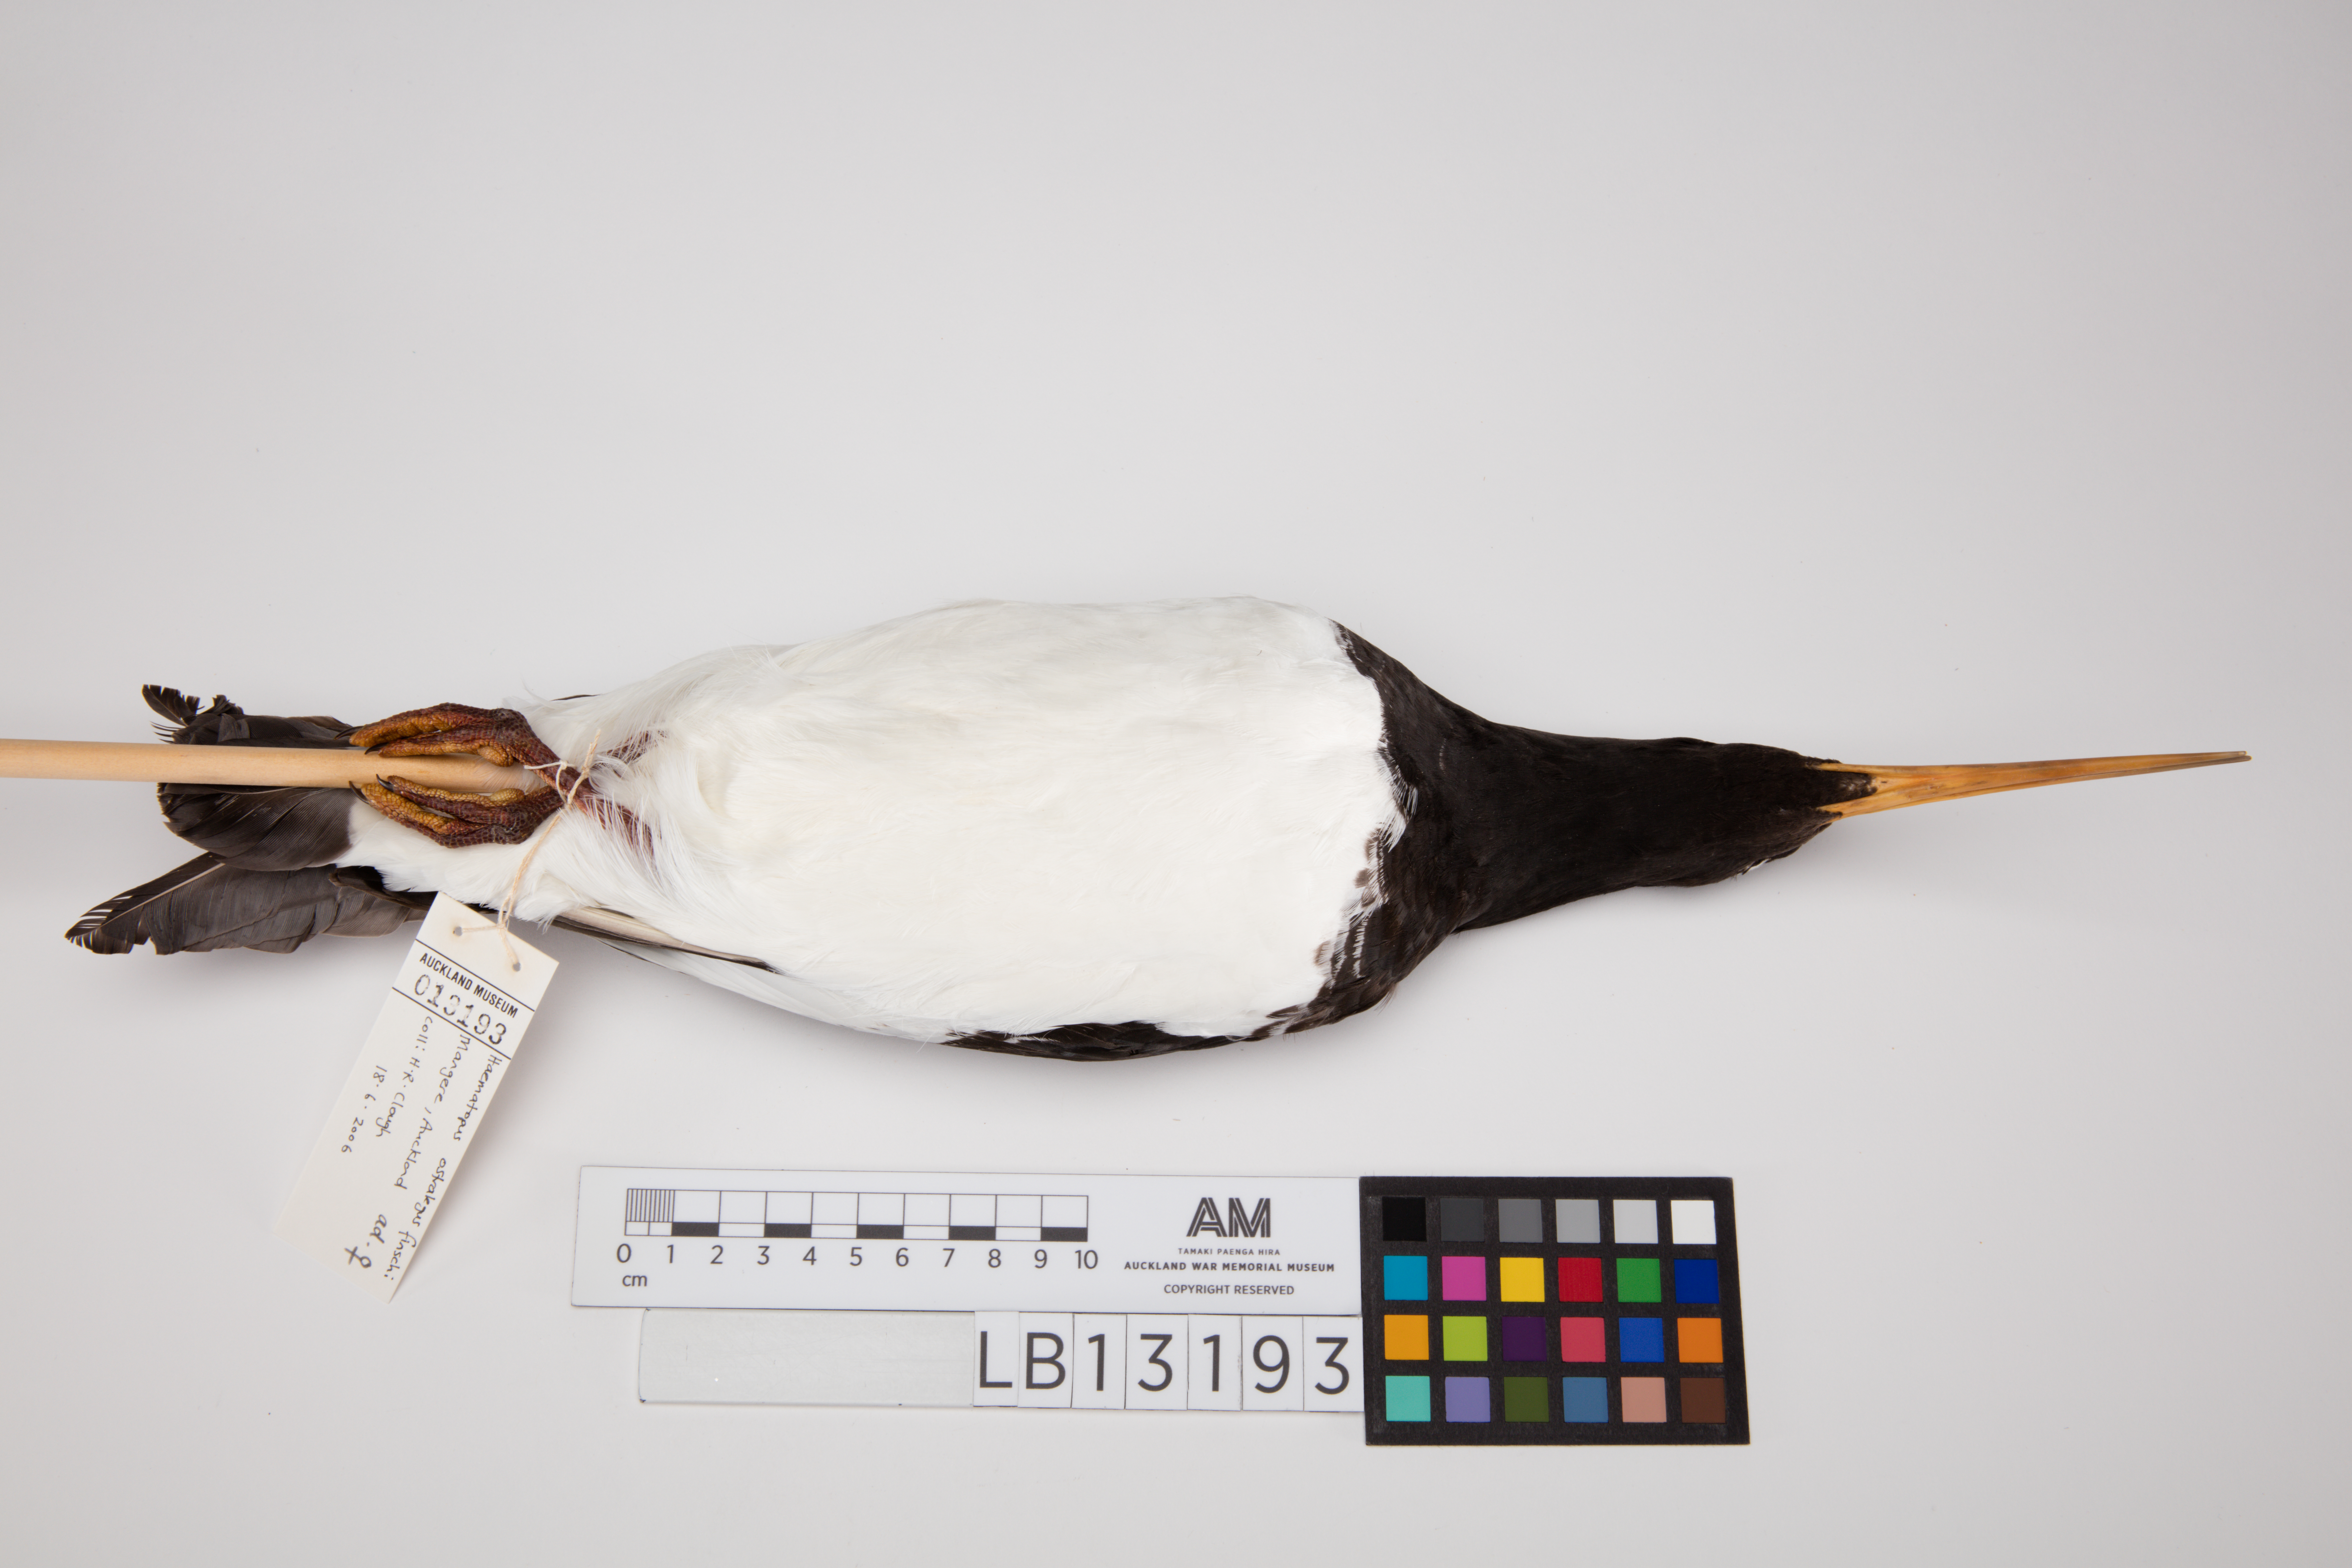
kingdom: Animalia
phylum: Chordata
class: Aves
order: Charadriiformes
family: Haematopodidae
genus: Haematopus
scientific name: Haematopus finschi
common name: South island oystercatcher
